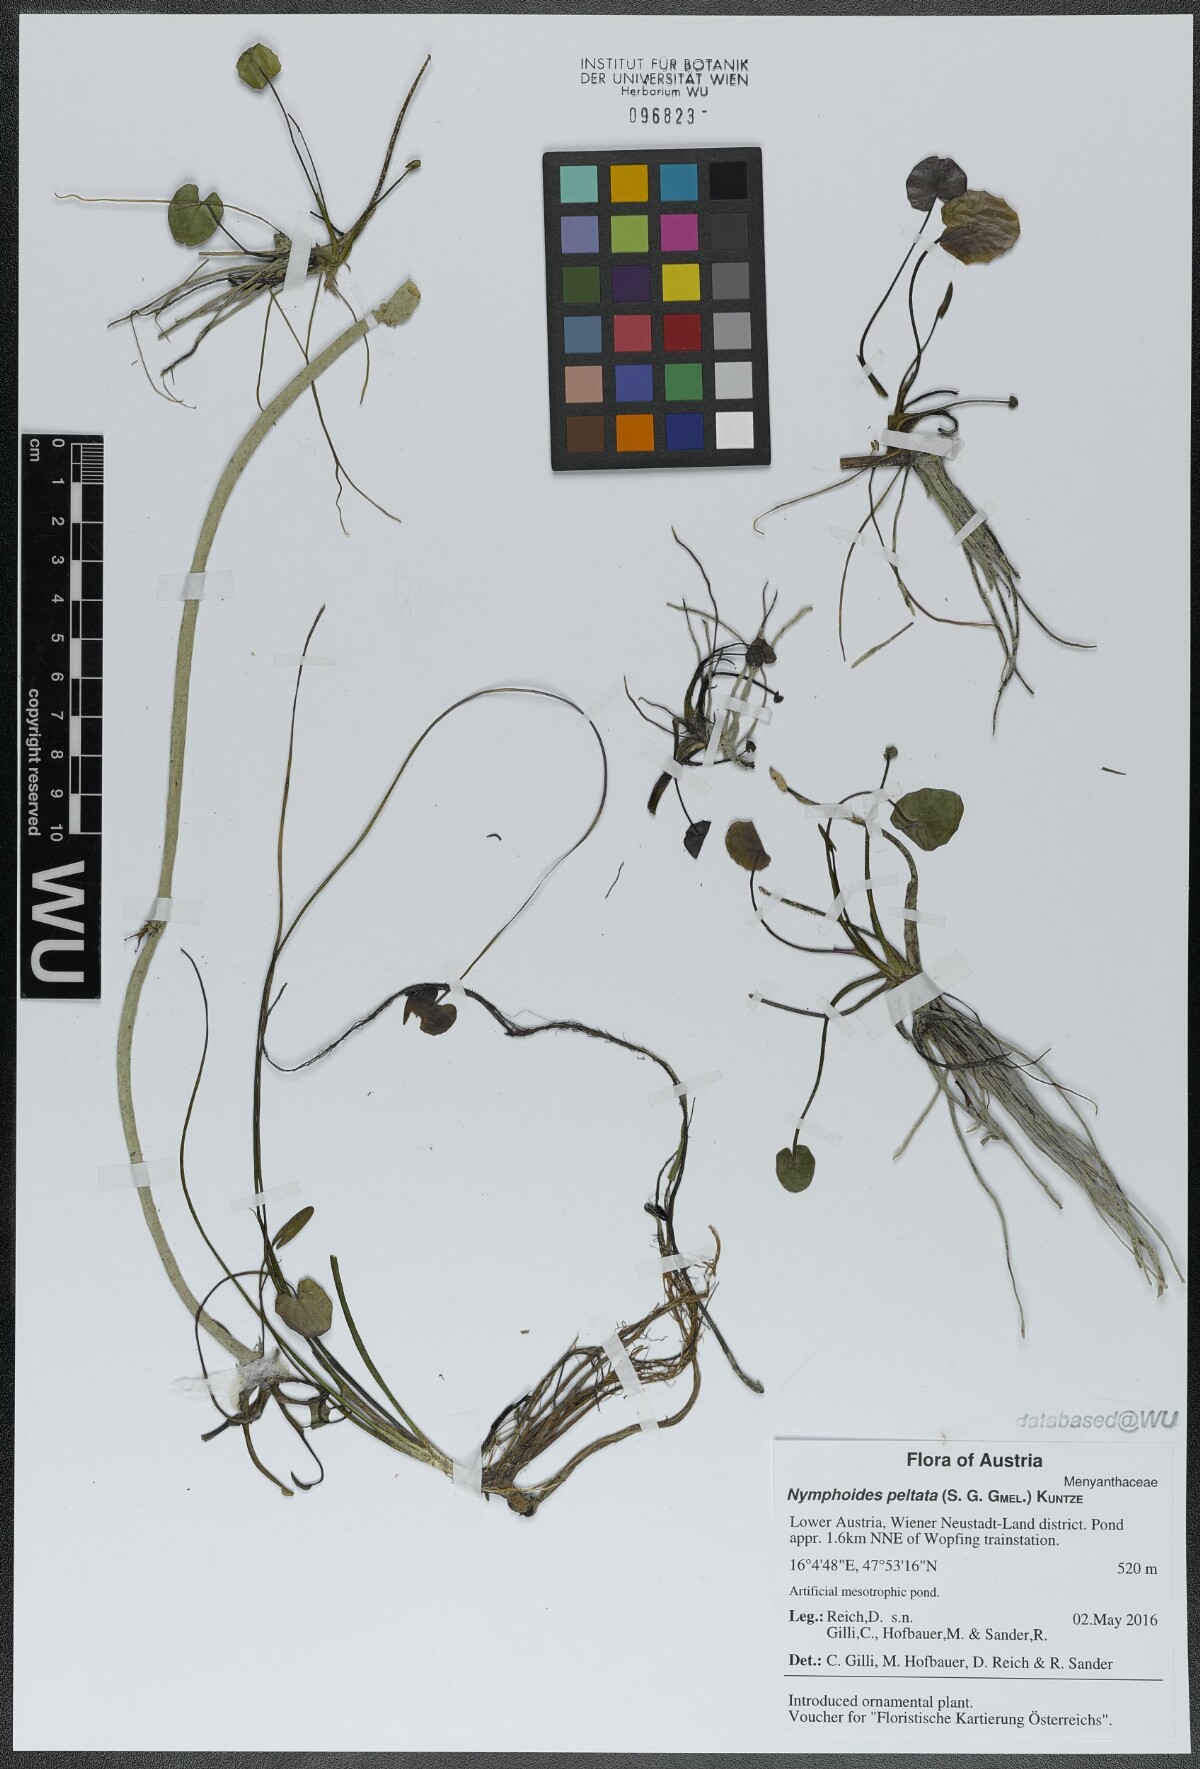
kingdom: Plantae
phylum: Tracheophyta
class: Magnoliopsida
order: Asterales
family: Menyanthaceae
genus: Nymphoides
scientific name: Nymphoides peltata
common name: Fringed water-lily
